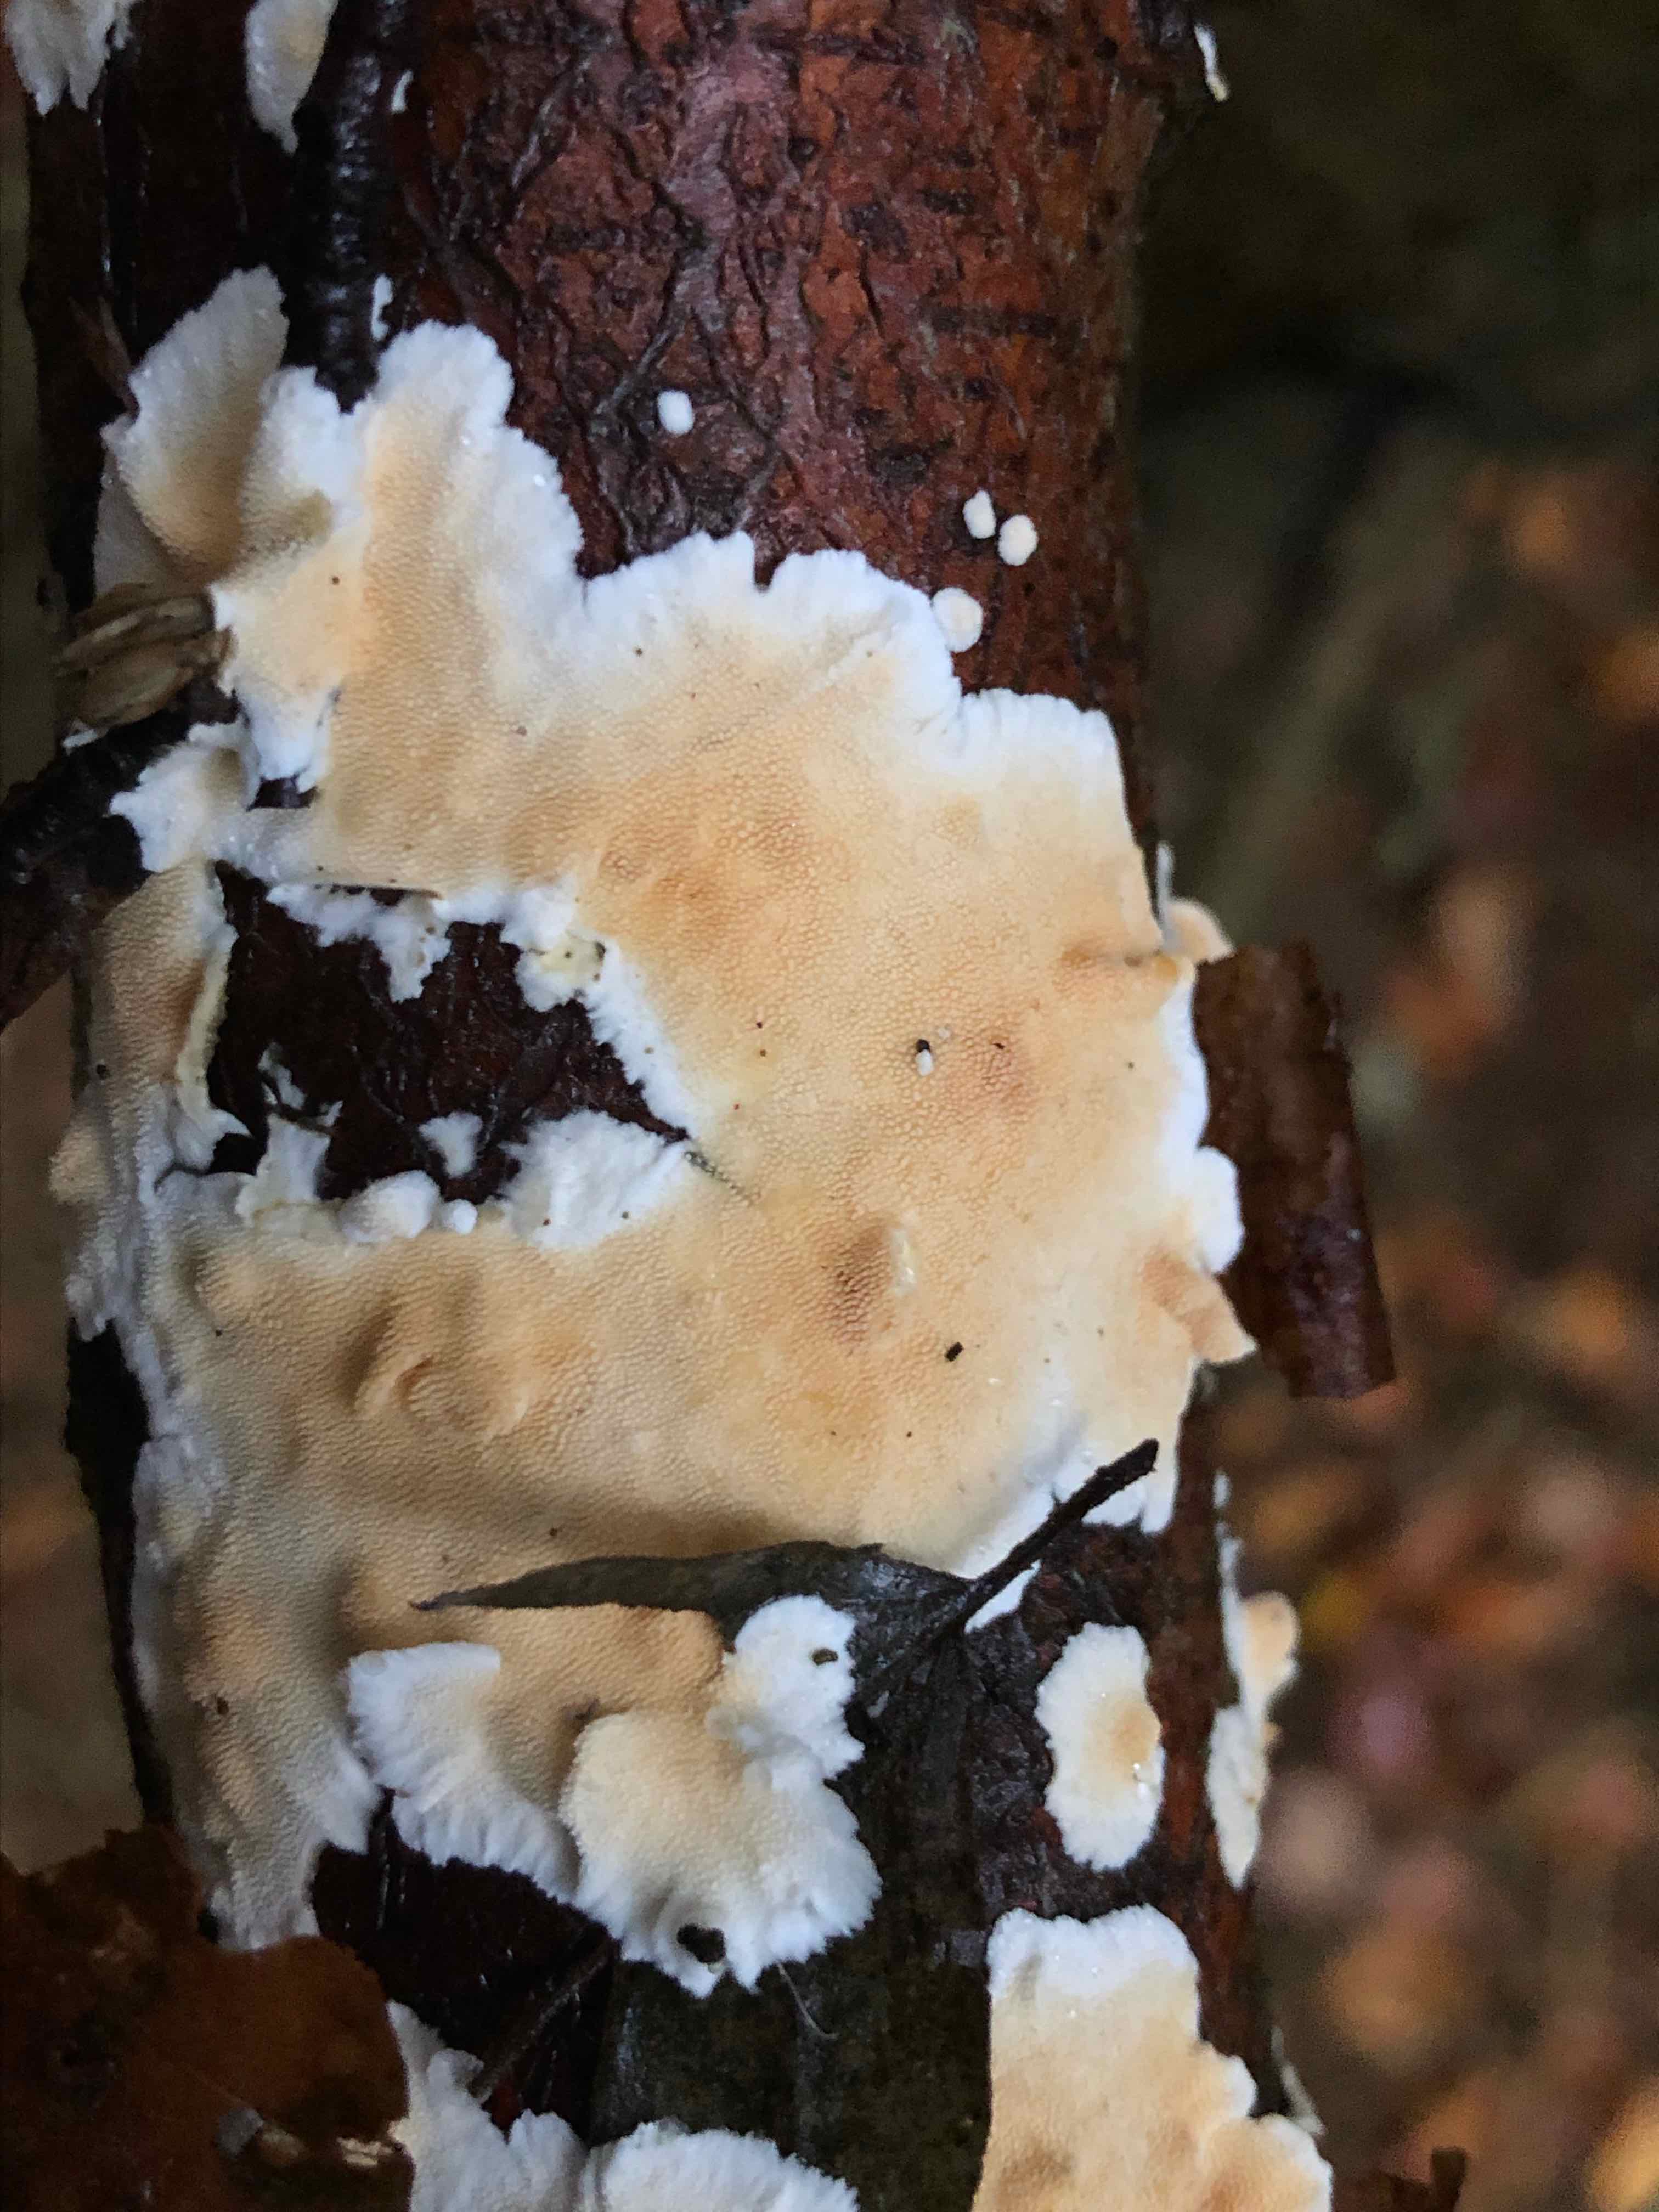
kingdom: Fungi
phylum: Basidiomycota
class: Agaricomycetes
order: Polyporales
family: Steccherinaceae
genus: Steccherinum
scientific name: Steccherinum ochraceum
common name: almindelig skønpig
